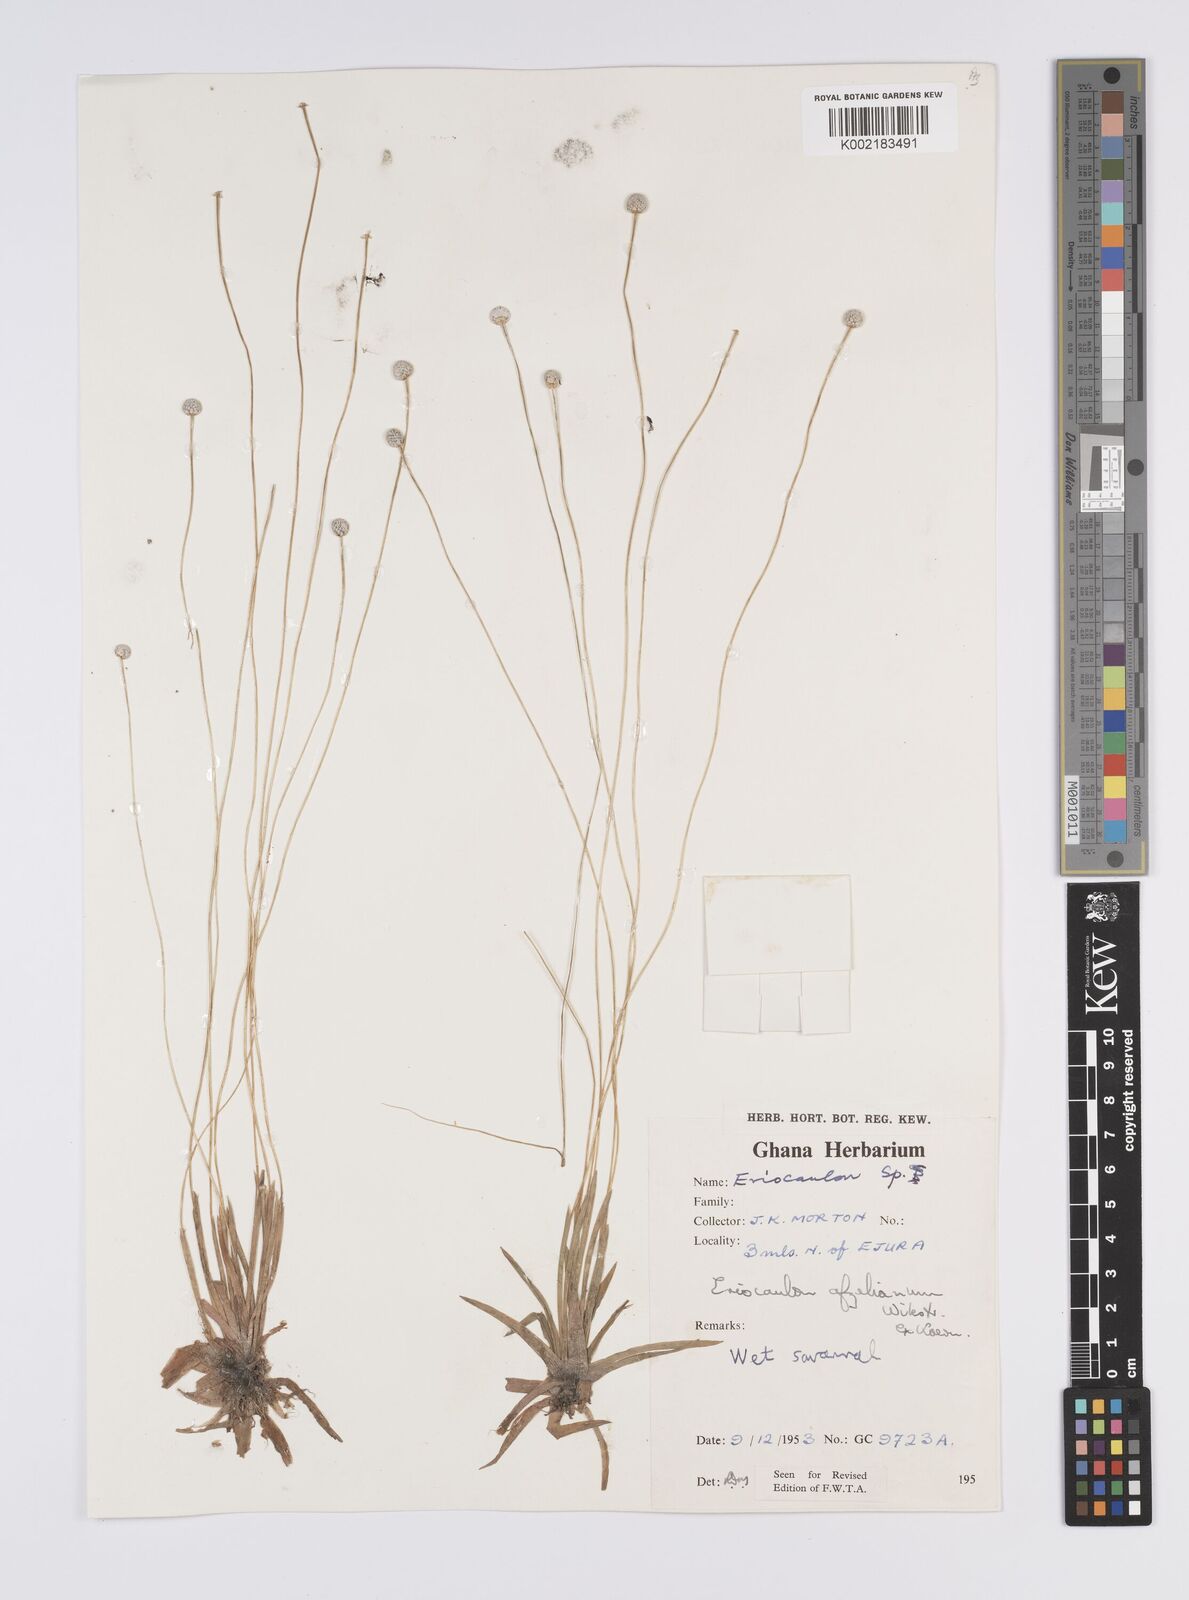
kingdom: Plantae
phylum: Tracheophyta
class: Liliopsida
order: Poales
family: Eriocaulaceae
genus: Eriocaulon
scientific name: Eriocaulon afzelianum
